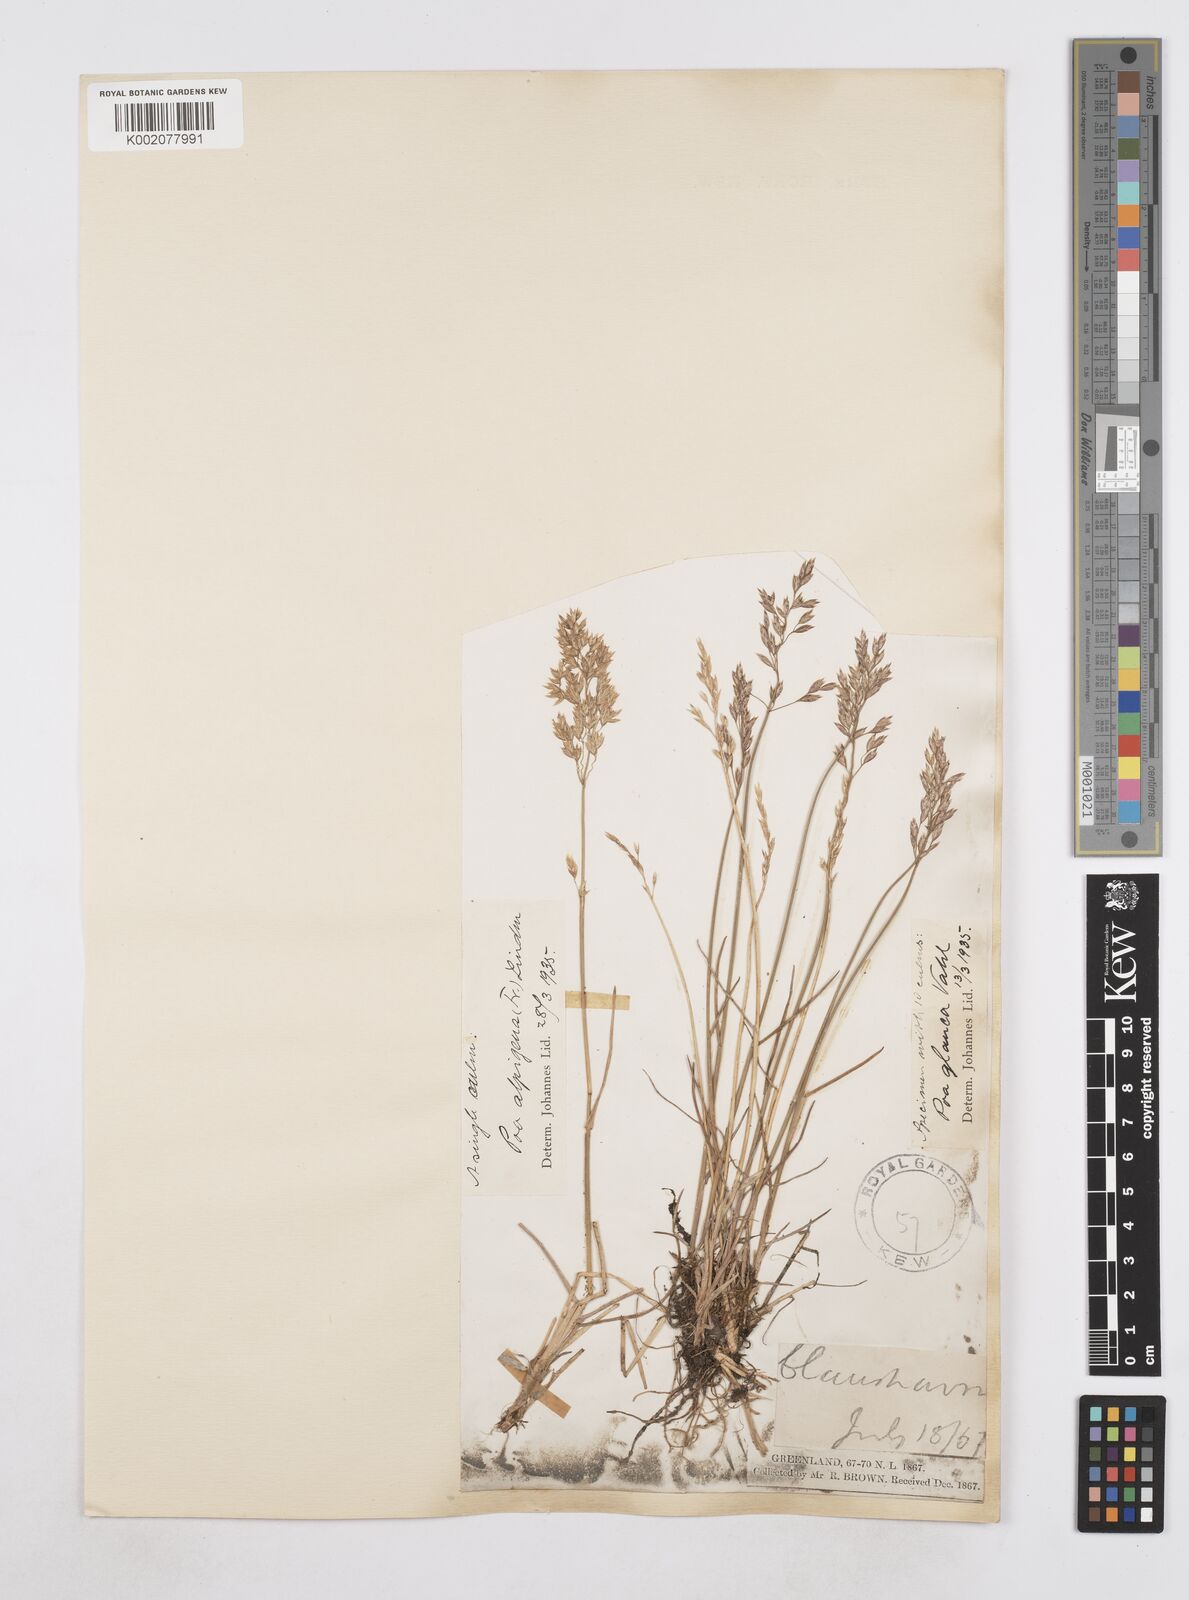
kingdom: Plantae
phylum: Tracheophyta
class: Liliopsida
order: Poales
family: Poaceae
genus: Poa
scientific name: Poa alpigena
